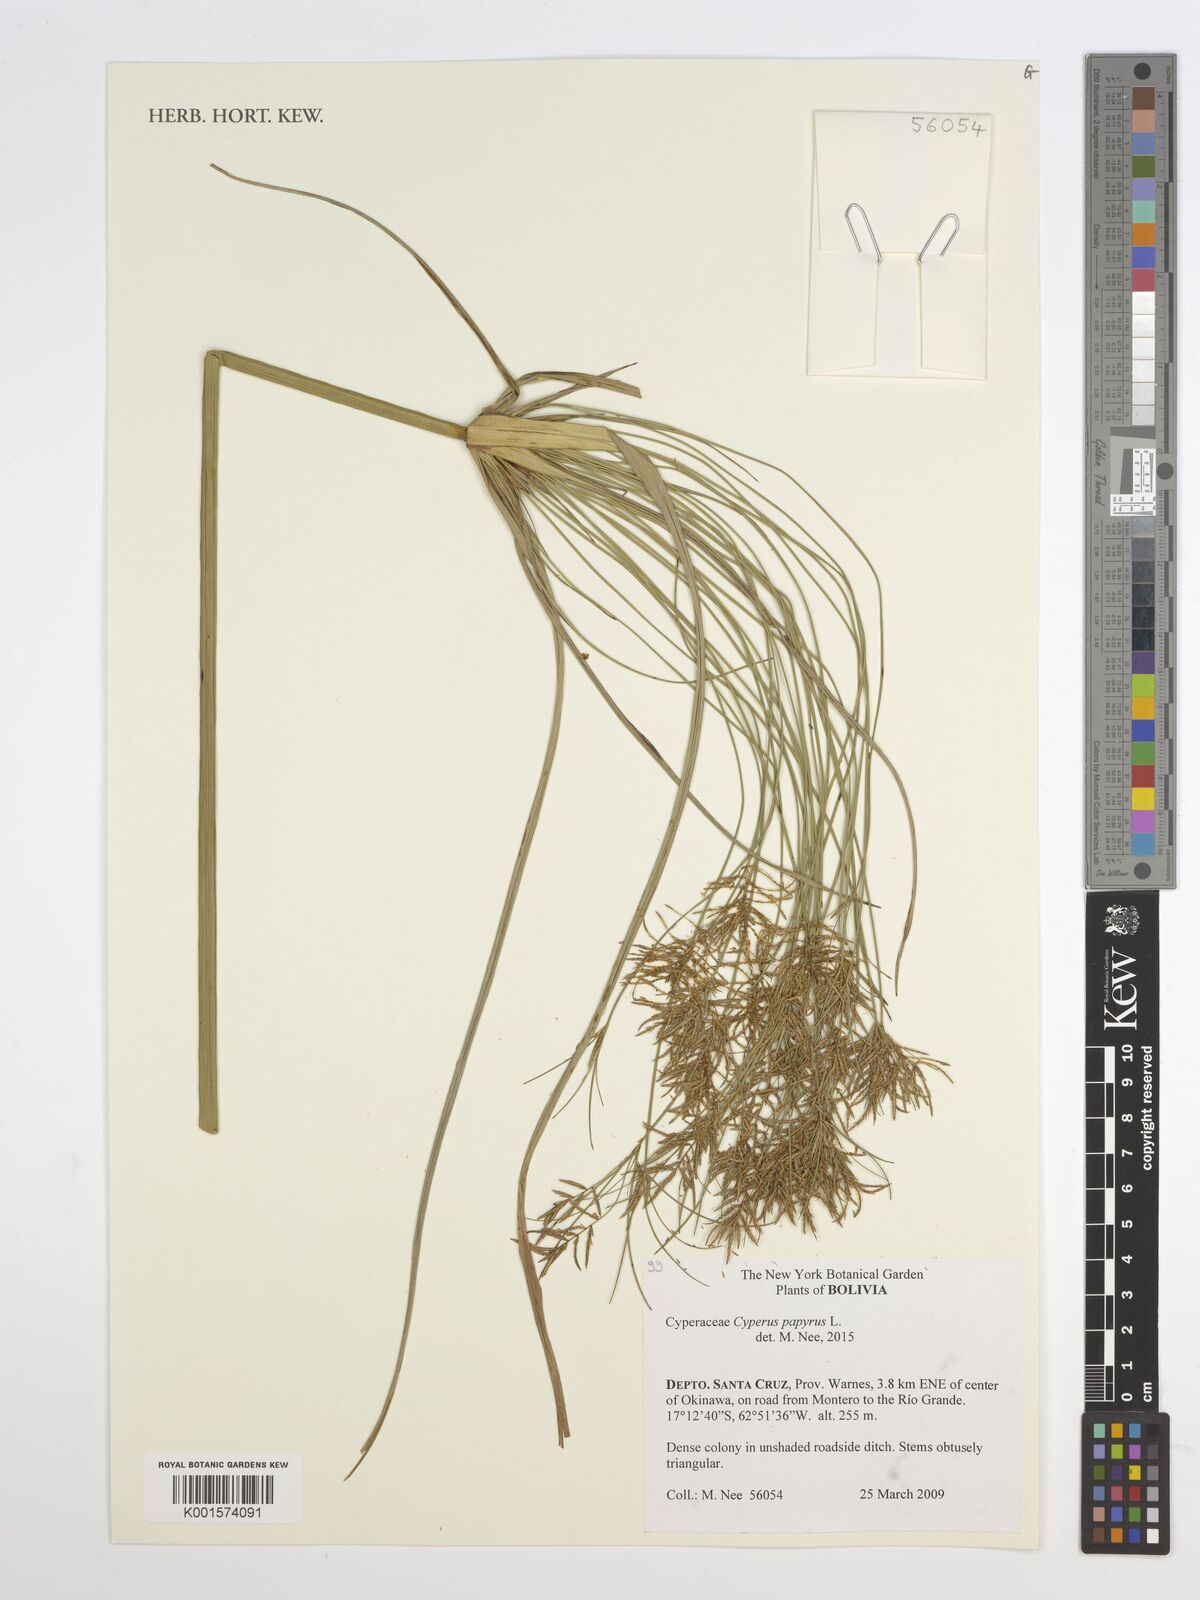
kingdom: Plantae
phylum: Tracheophyta
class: Liliopsida
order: Poales
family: Cyperaceae
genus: Cyperus
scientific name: Cyperus papyrus
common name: Papyrus
